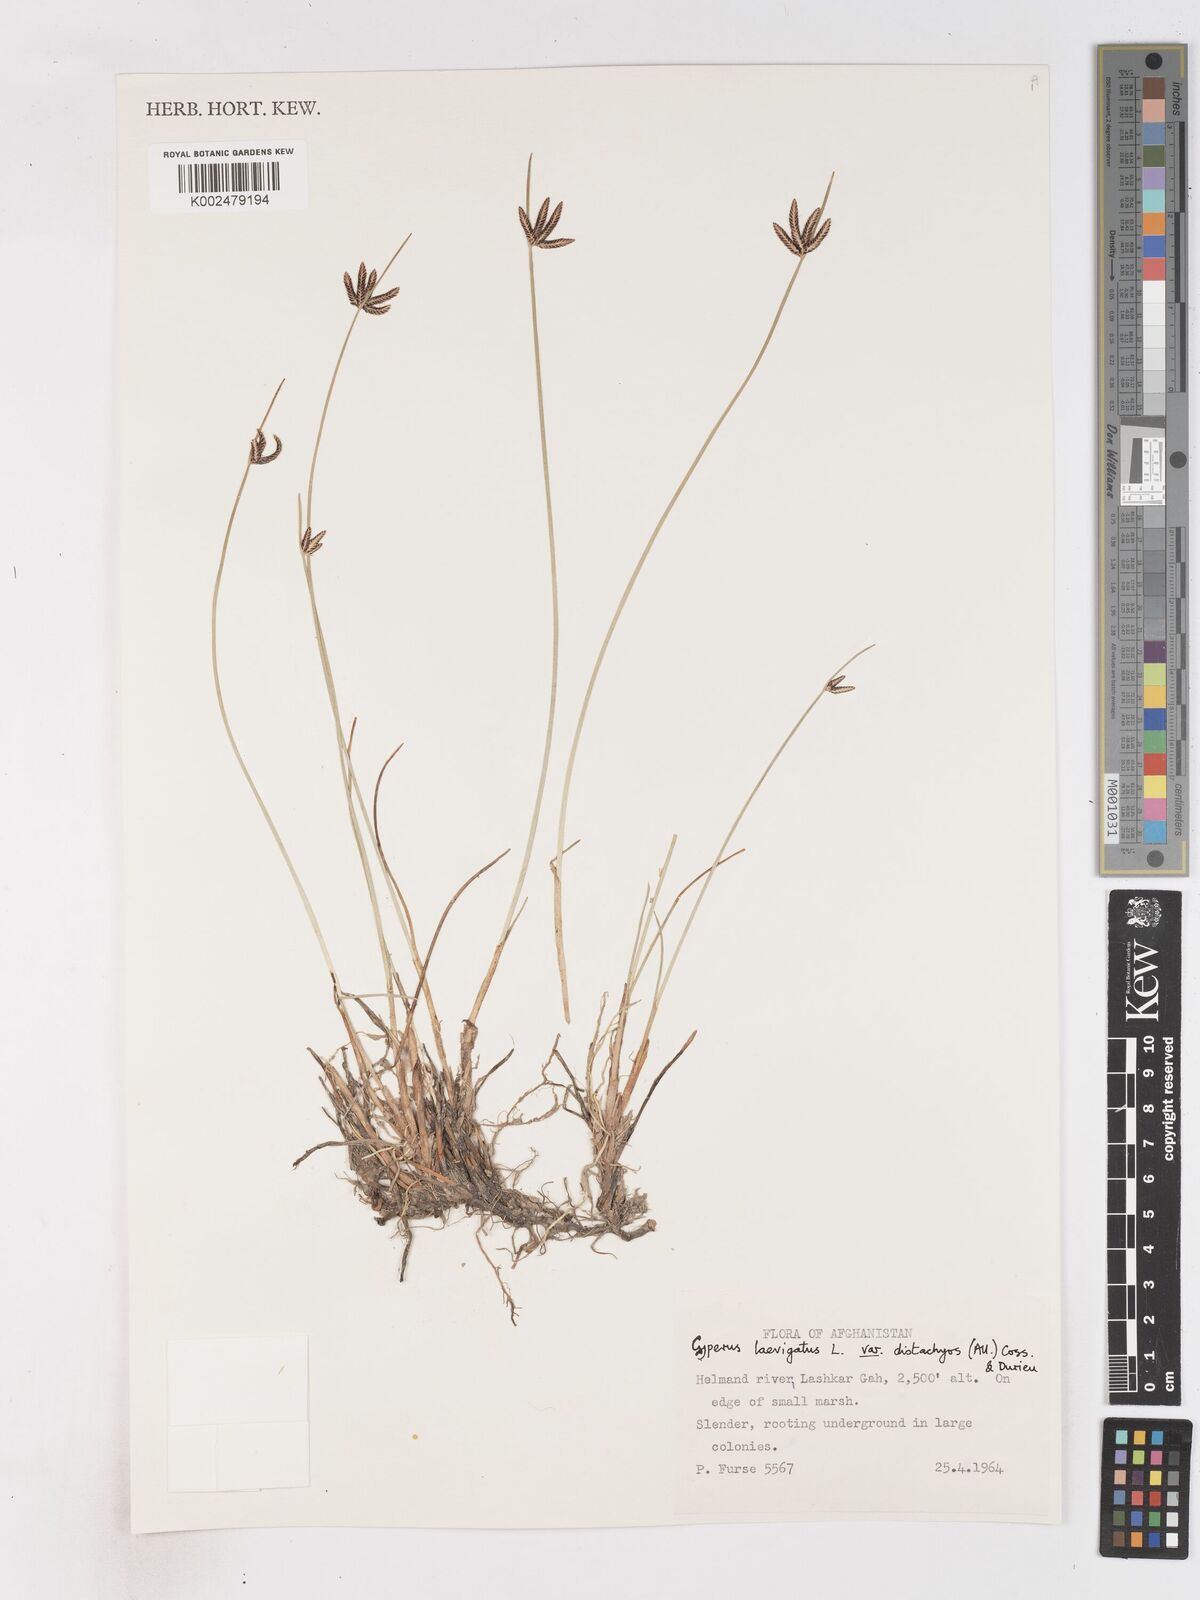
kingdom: Plantae
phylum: Tracheophyta
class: Liliopsida
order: Poales
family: Cyperaceae
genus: Cyperus
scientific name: Cyperus laevigatus
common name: Smooth flat sedge
